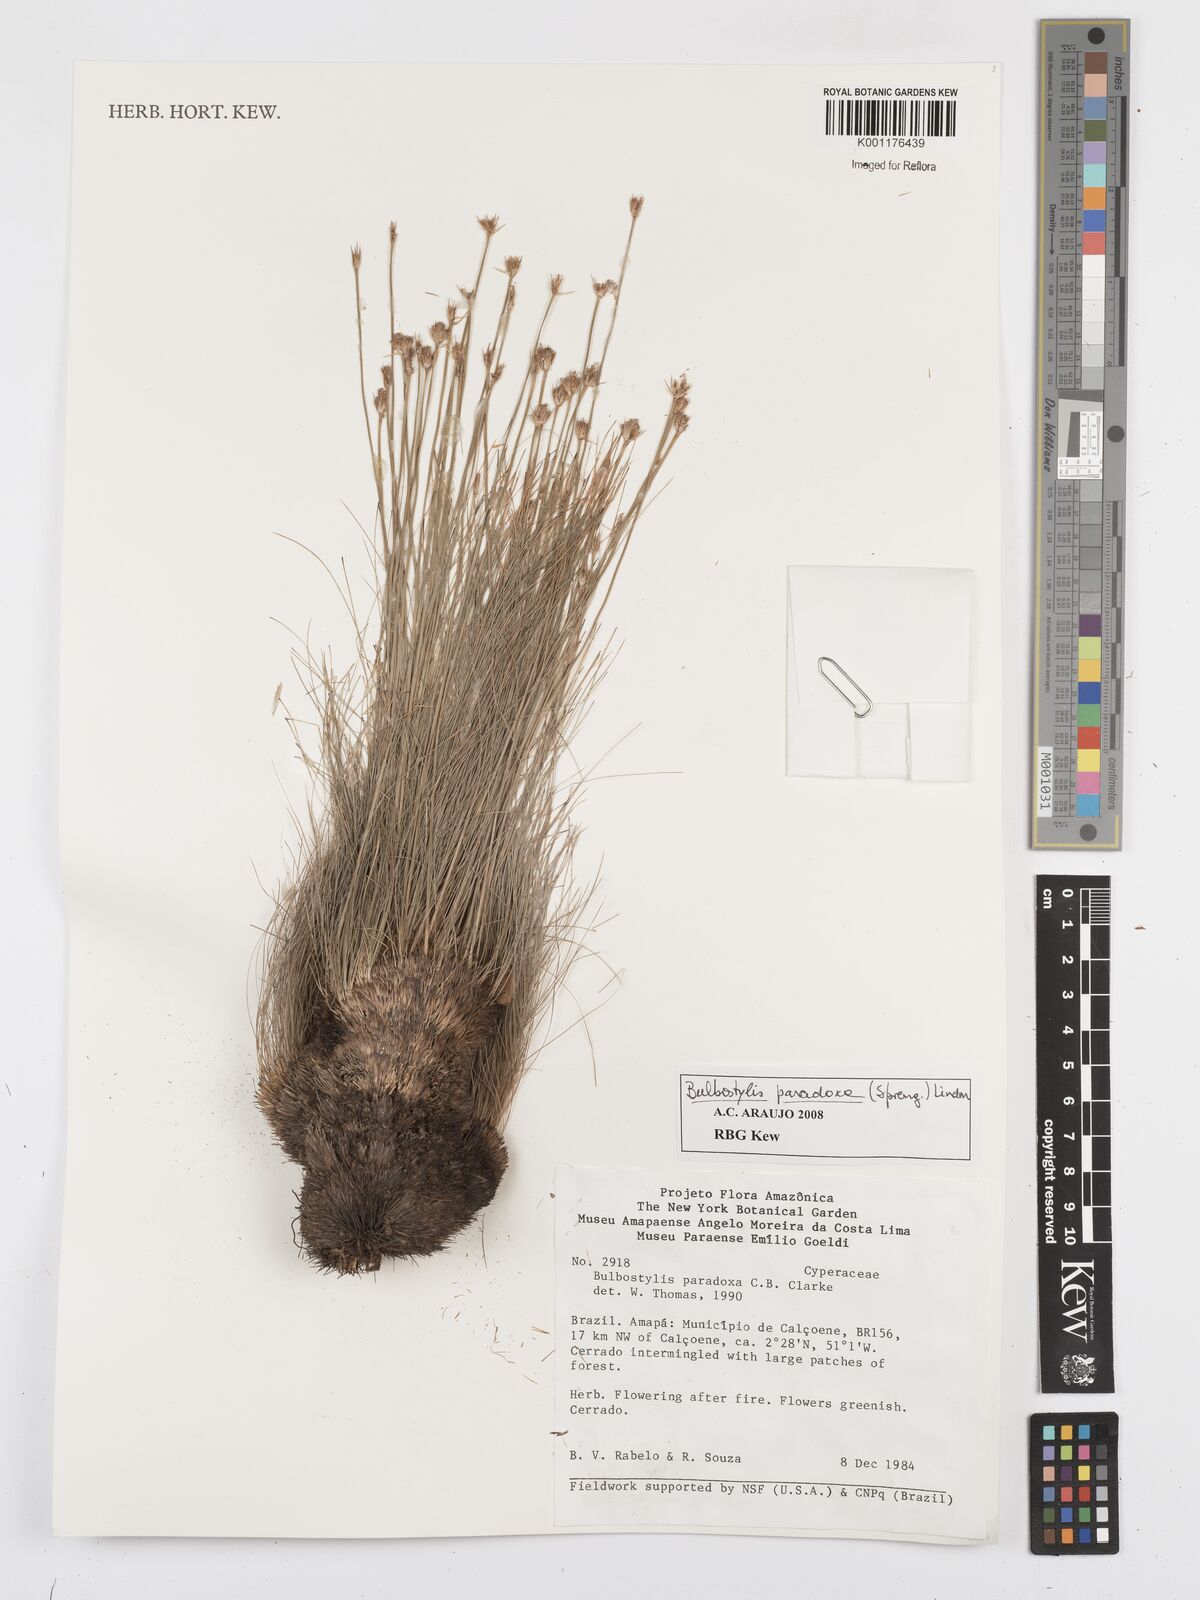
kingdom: Plantae
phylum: Tracheophyta
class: Liliopsida
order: Poales
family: Cyperaceae
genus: Bulbostylis
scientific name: Bulbostylis paradoxa
